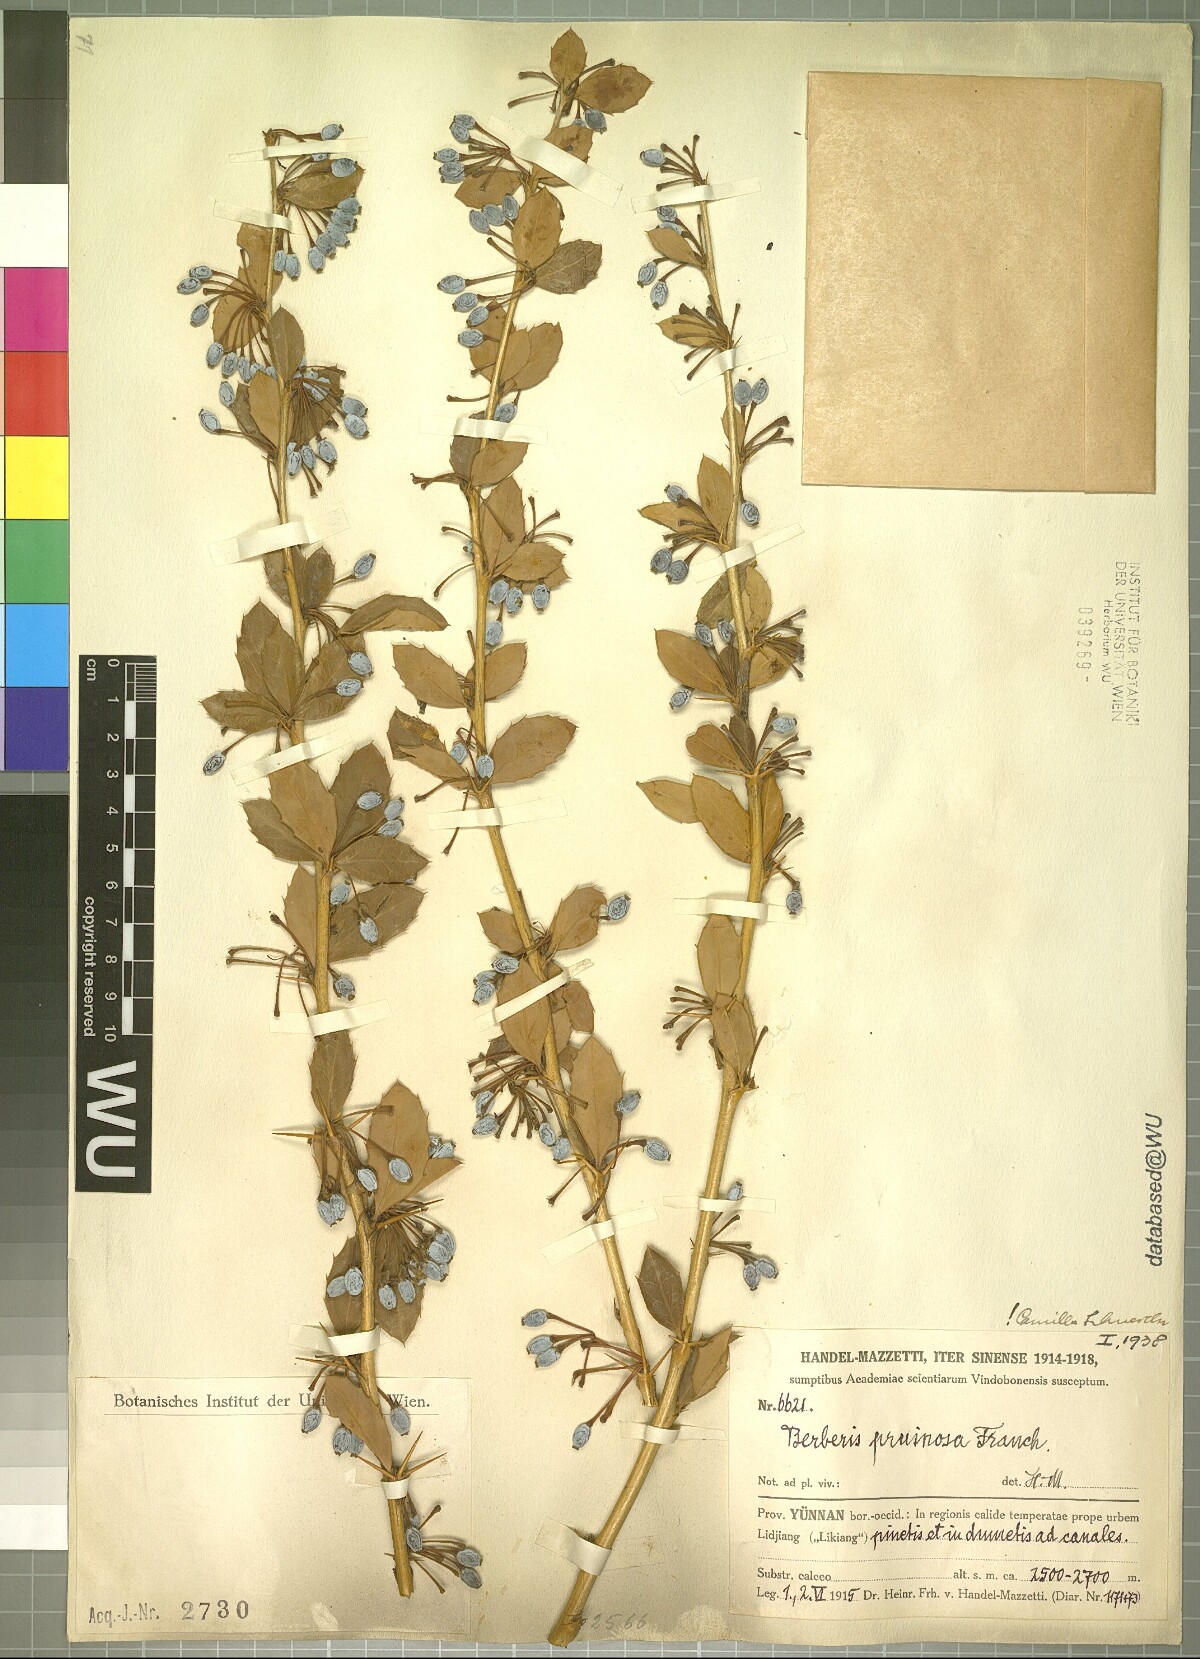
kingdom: Plantae
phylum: Tracheophyta
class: Magnoliopsida
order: Ranunculales
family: Berberidaceae
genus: Berberis
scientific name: Berberis pruinosa
